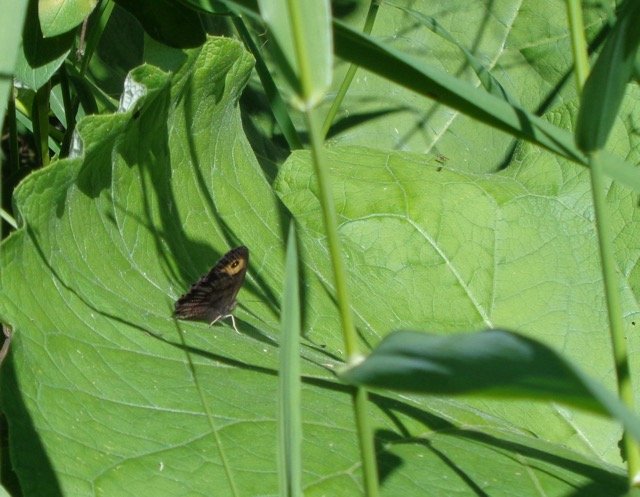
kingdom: Animalia
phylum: Arthropoda
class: Insecta
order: Lepidoptera
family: Nymphalidae
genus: Cercyonis
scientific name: Cercyonis pegala
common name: Common Wood-Nymph
